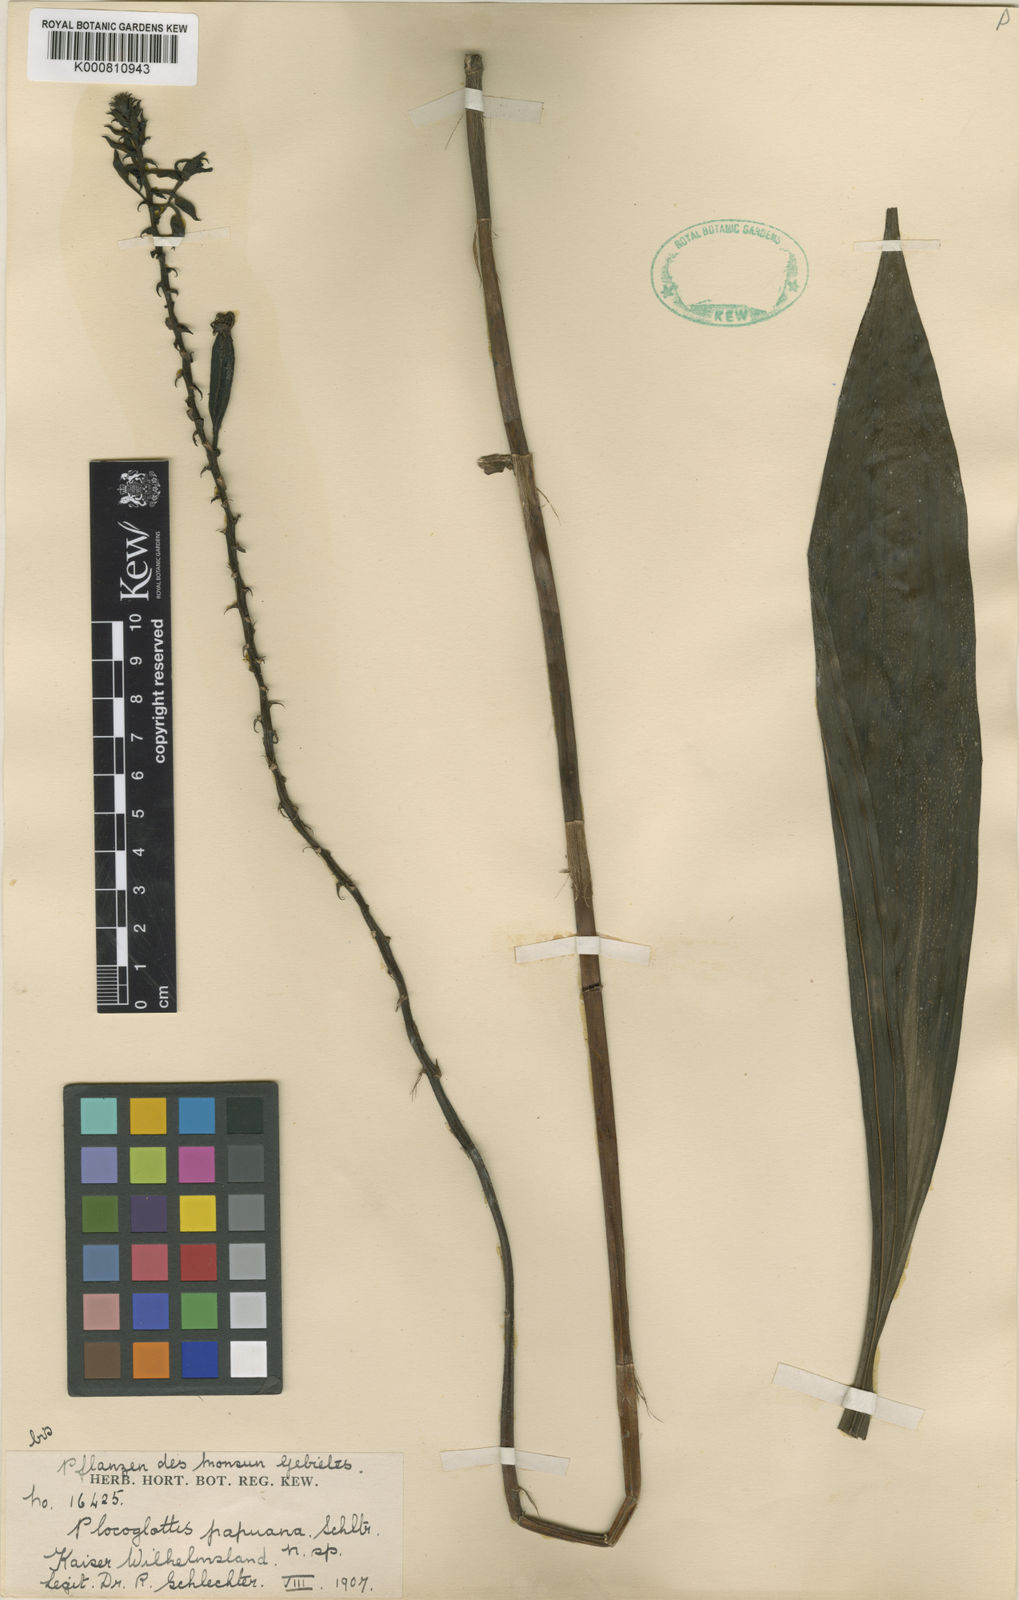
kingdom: Plantae
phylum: Tracheophyta
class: Liliopsida
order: Asparagales
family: Orchidaceae
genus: Plocoglottis
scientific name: Plocoglottis kaniensis
